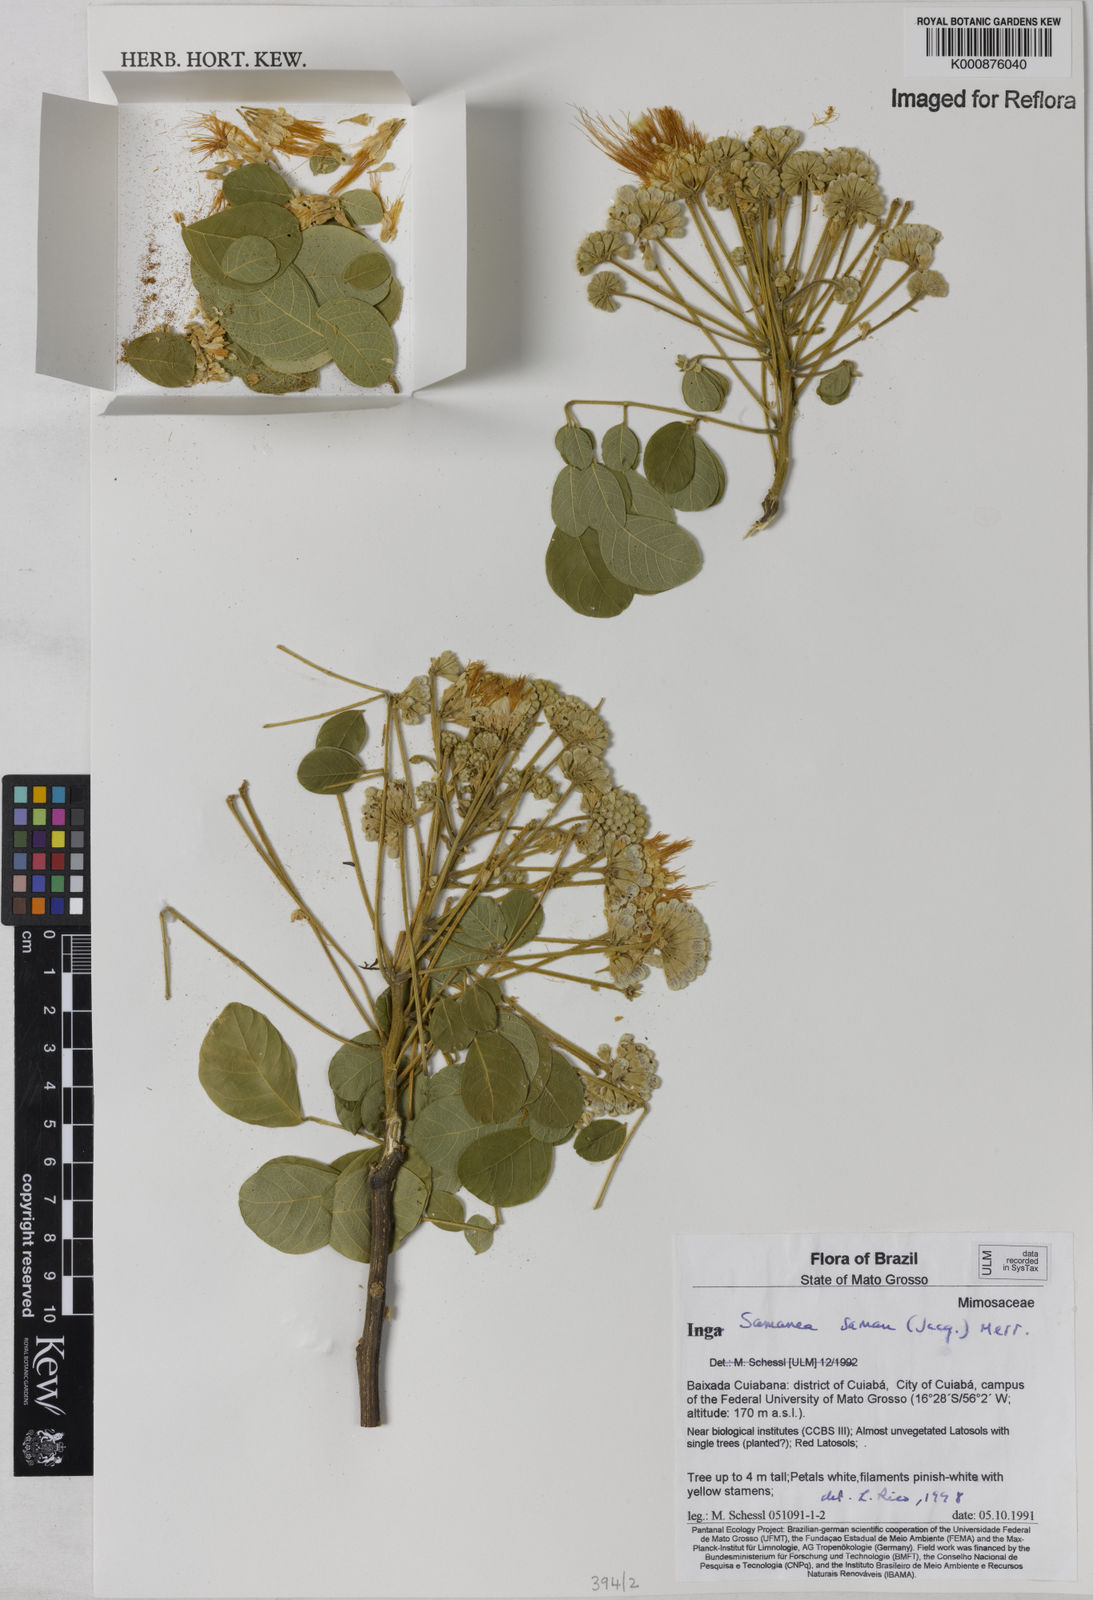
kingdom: Plantae
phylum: Tracheophyta
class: Magnoliopsida
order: Fabales
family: Fabaceae
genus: Samanea
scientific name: Samanea saman
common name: Raintree
